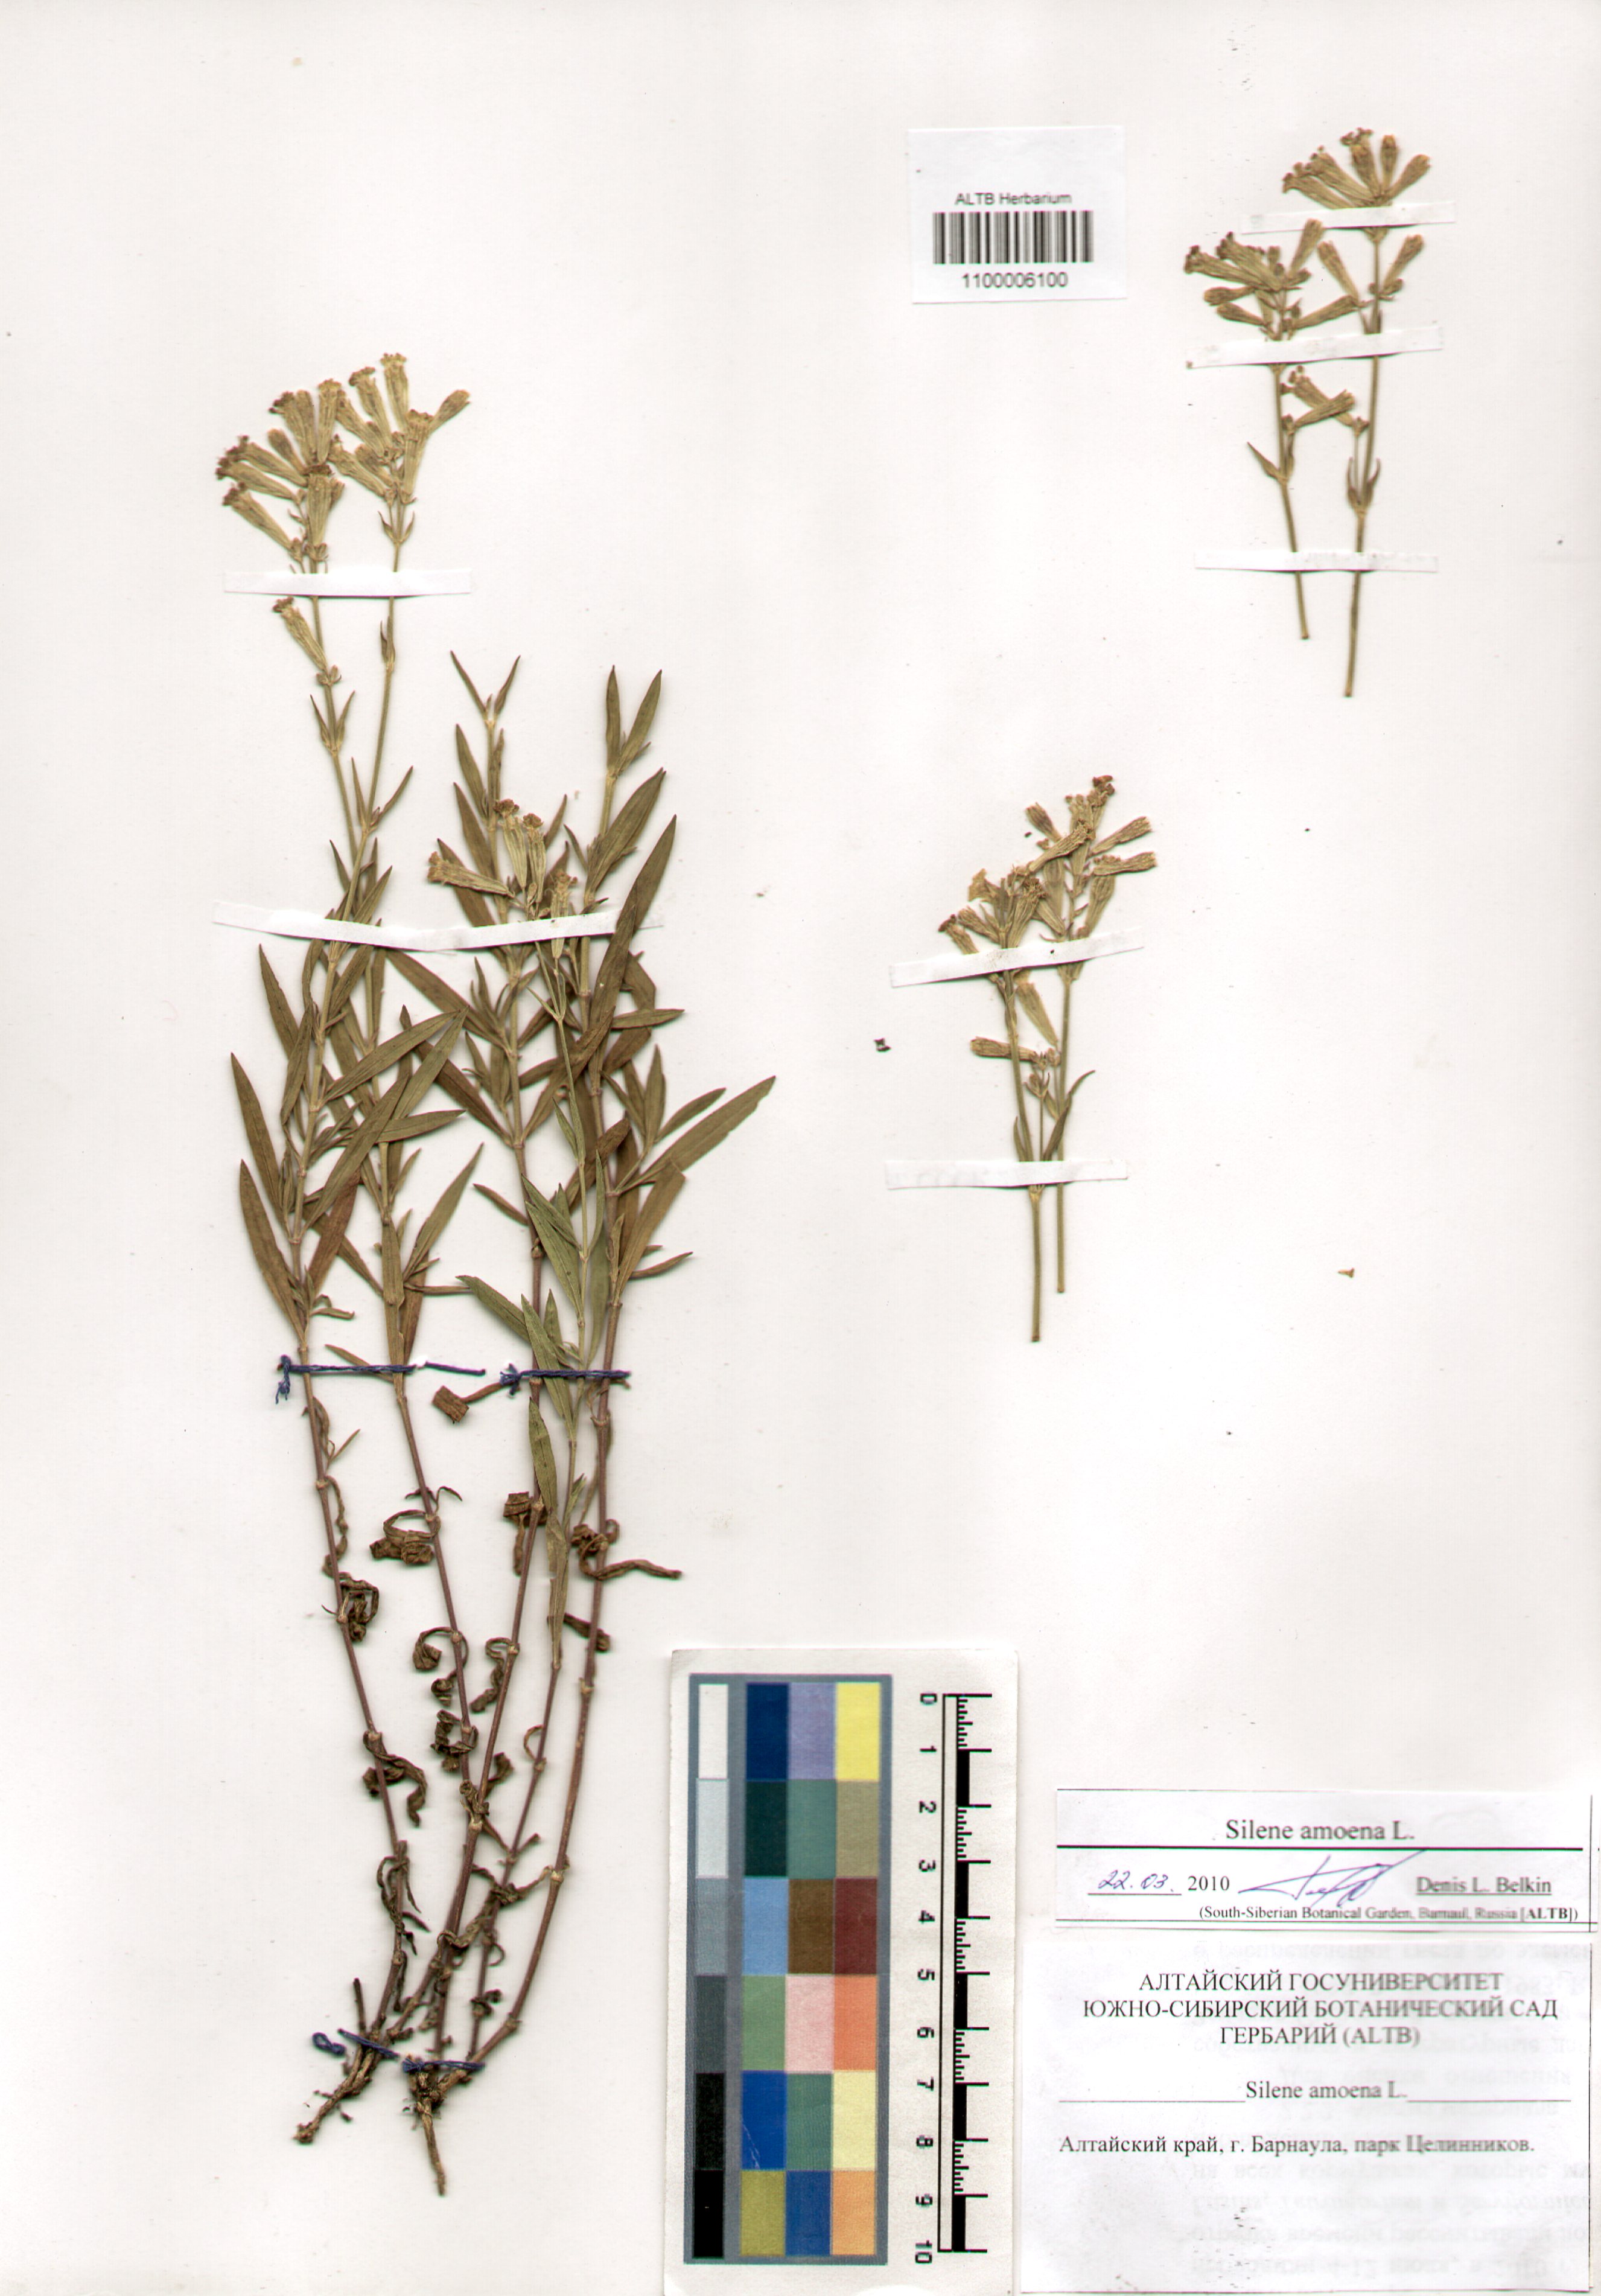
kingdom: Plantae
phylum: Tracheophyta
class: Magnoliopsida
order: Caryophyllales
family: Caryophyllaceae
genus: Silene
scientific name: Silene amoena
